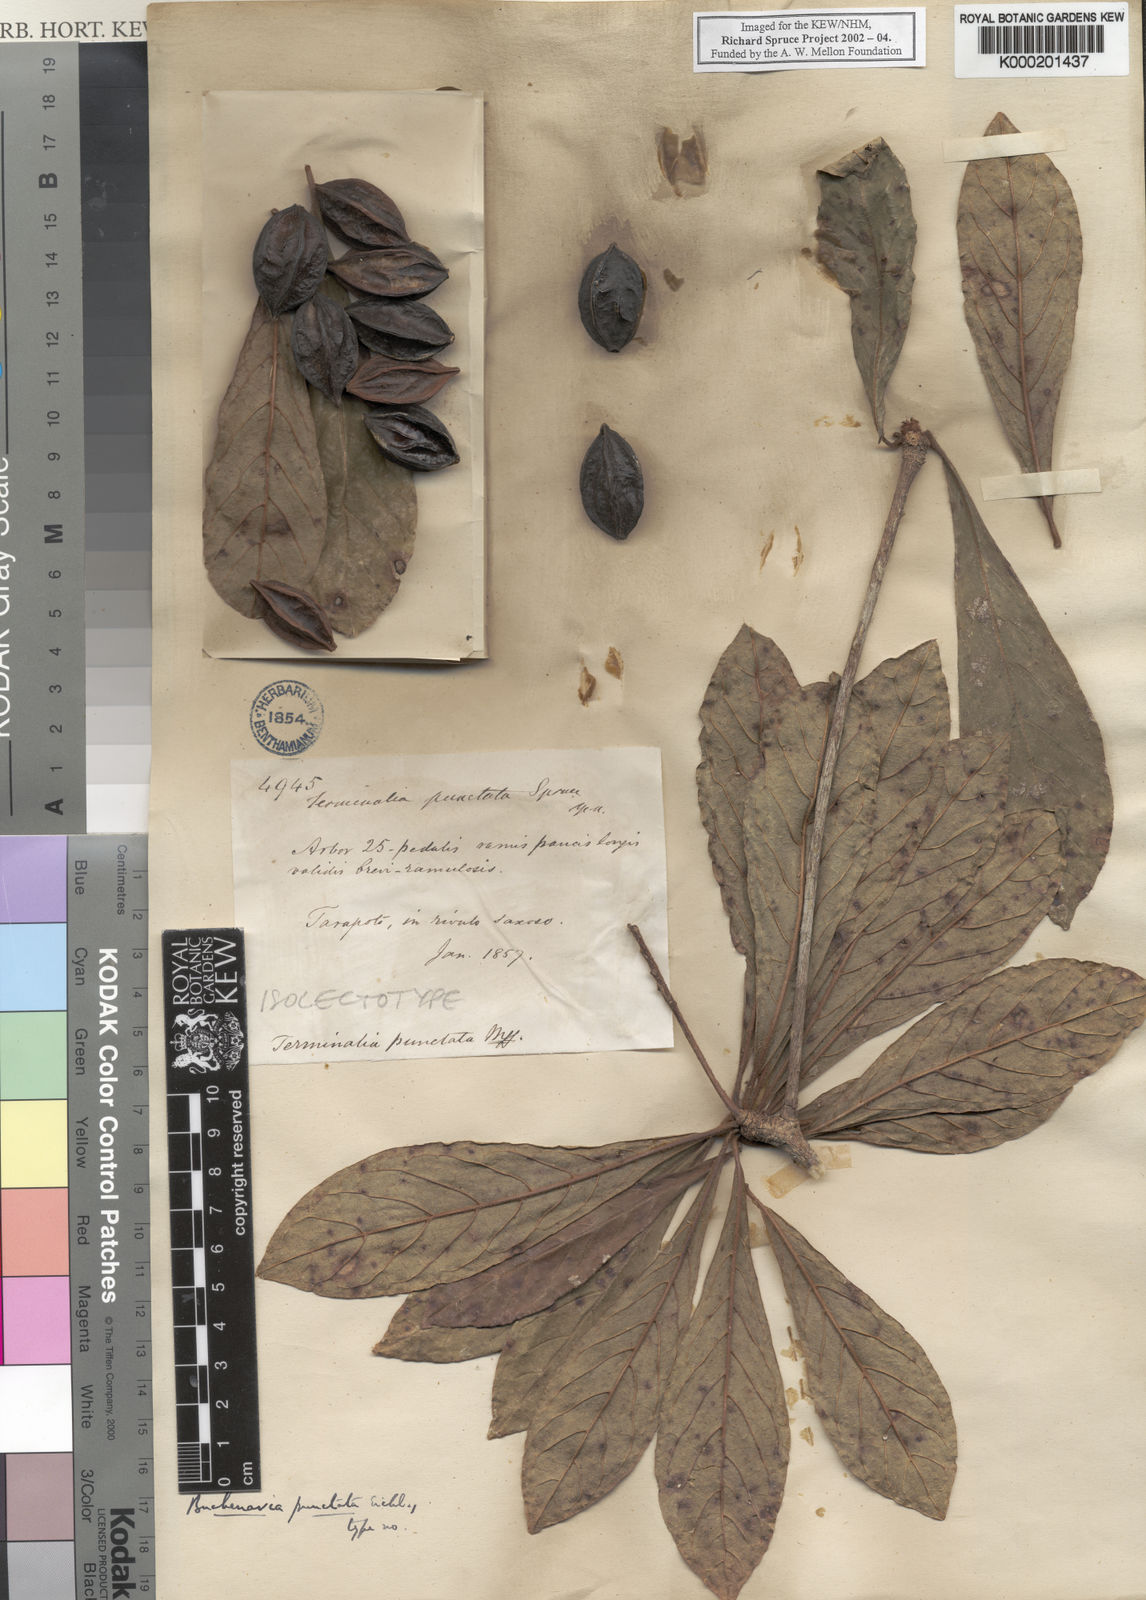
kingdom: Plantae
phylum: Tracheophyta
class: Magnoliopsida
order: Myrtales
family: Combretaceae
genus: Terminalia
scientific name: Terminalia eichleriana
